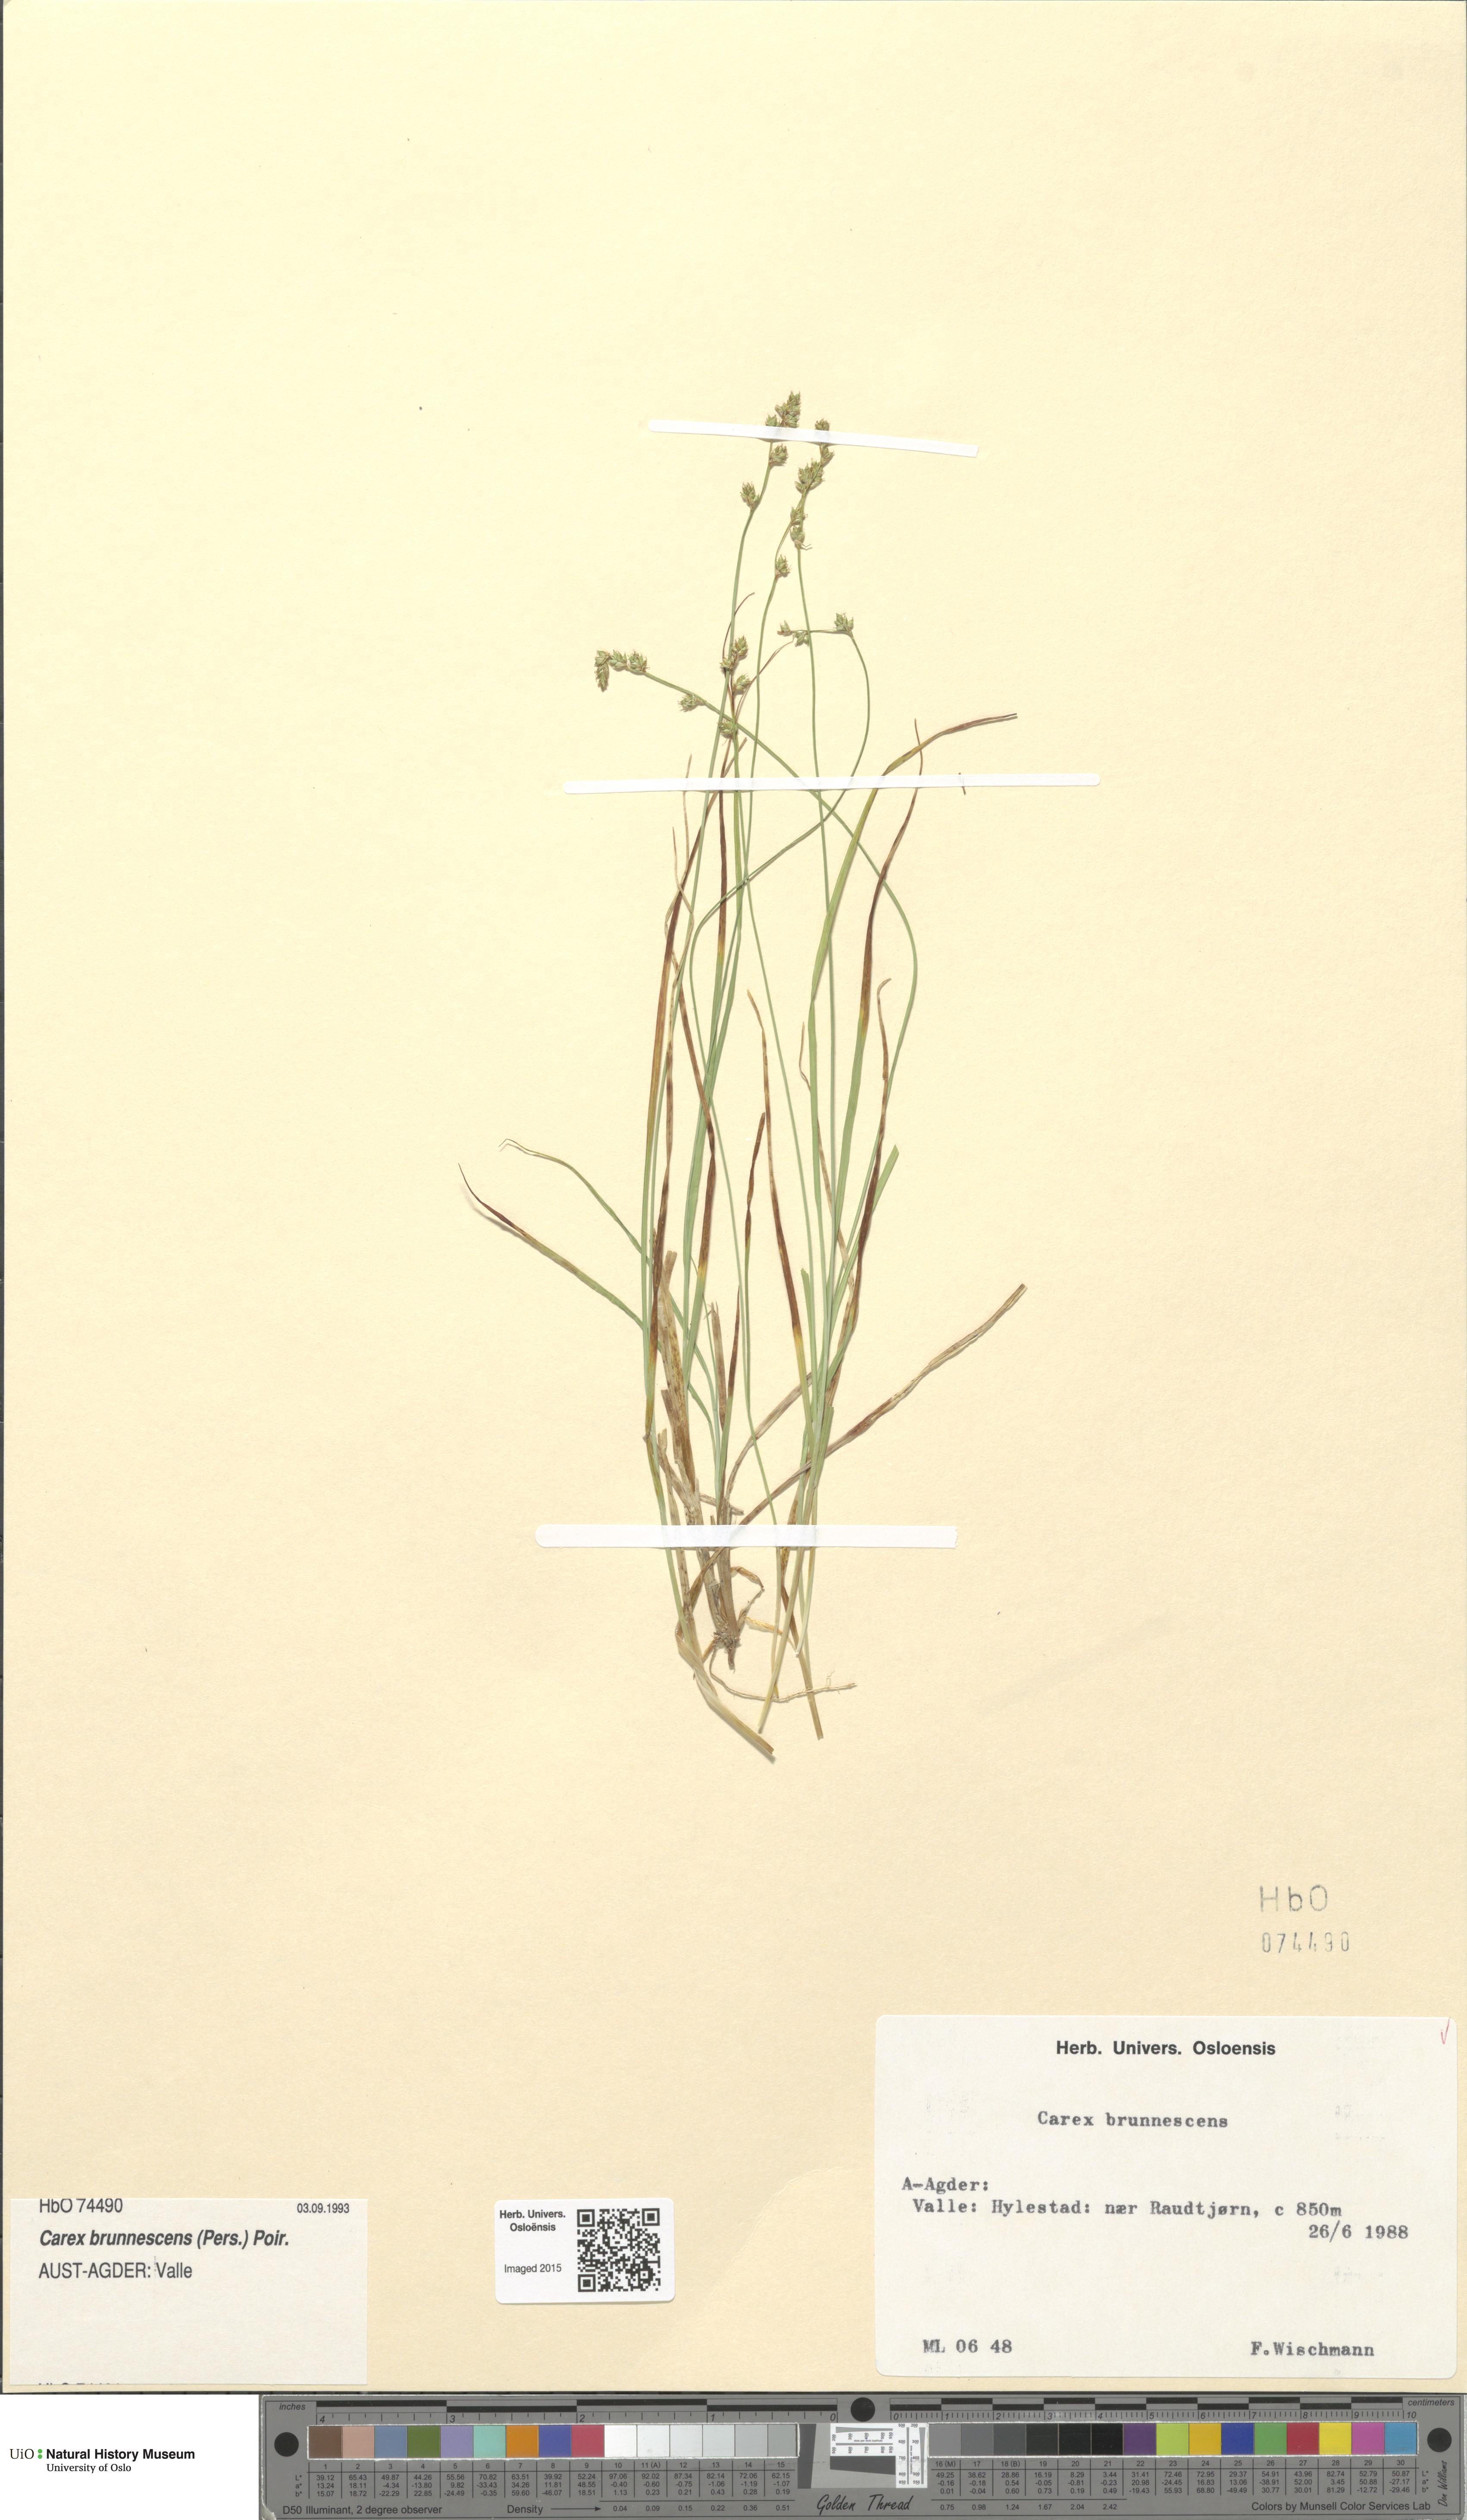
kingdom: Plantae
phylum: Tracheophyta
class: Liliopsida
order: Poales
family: Cyperaceae
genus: Carex
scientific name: Carex brunnescens
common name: Brown sedge
